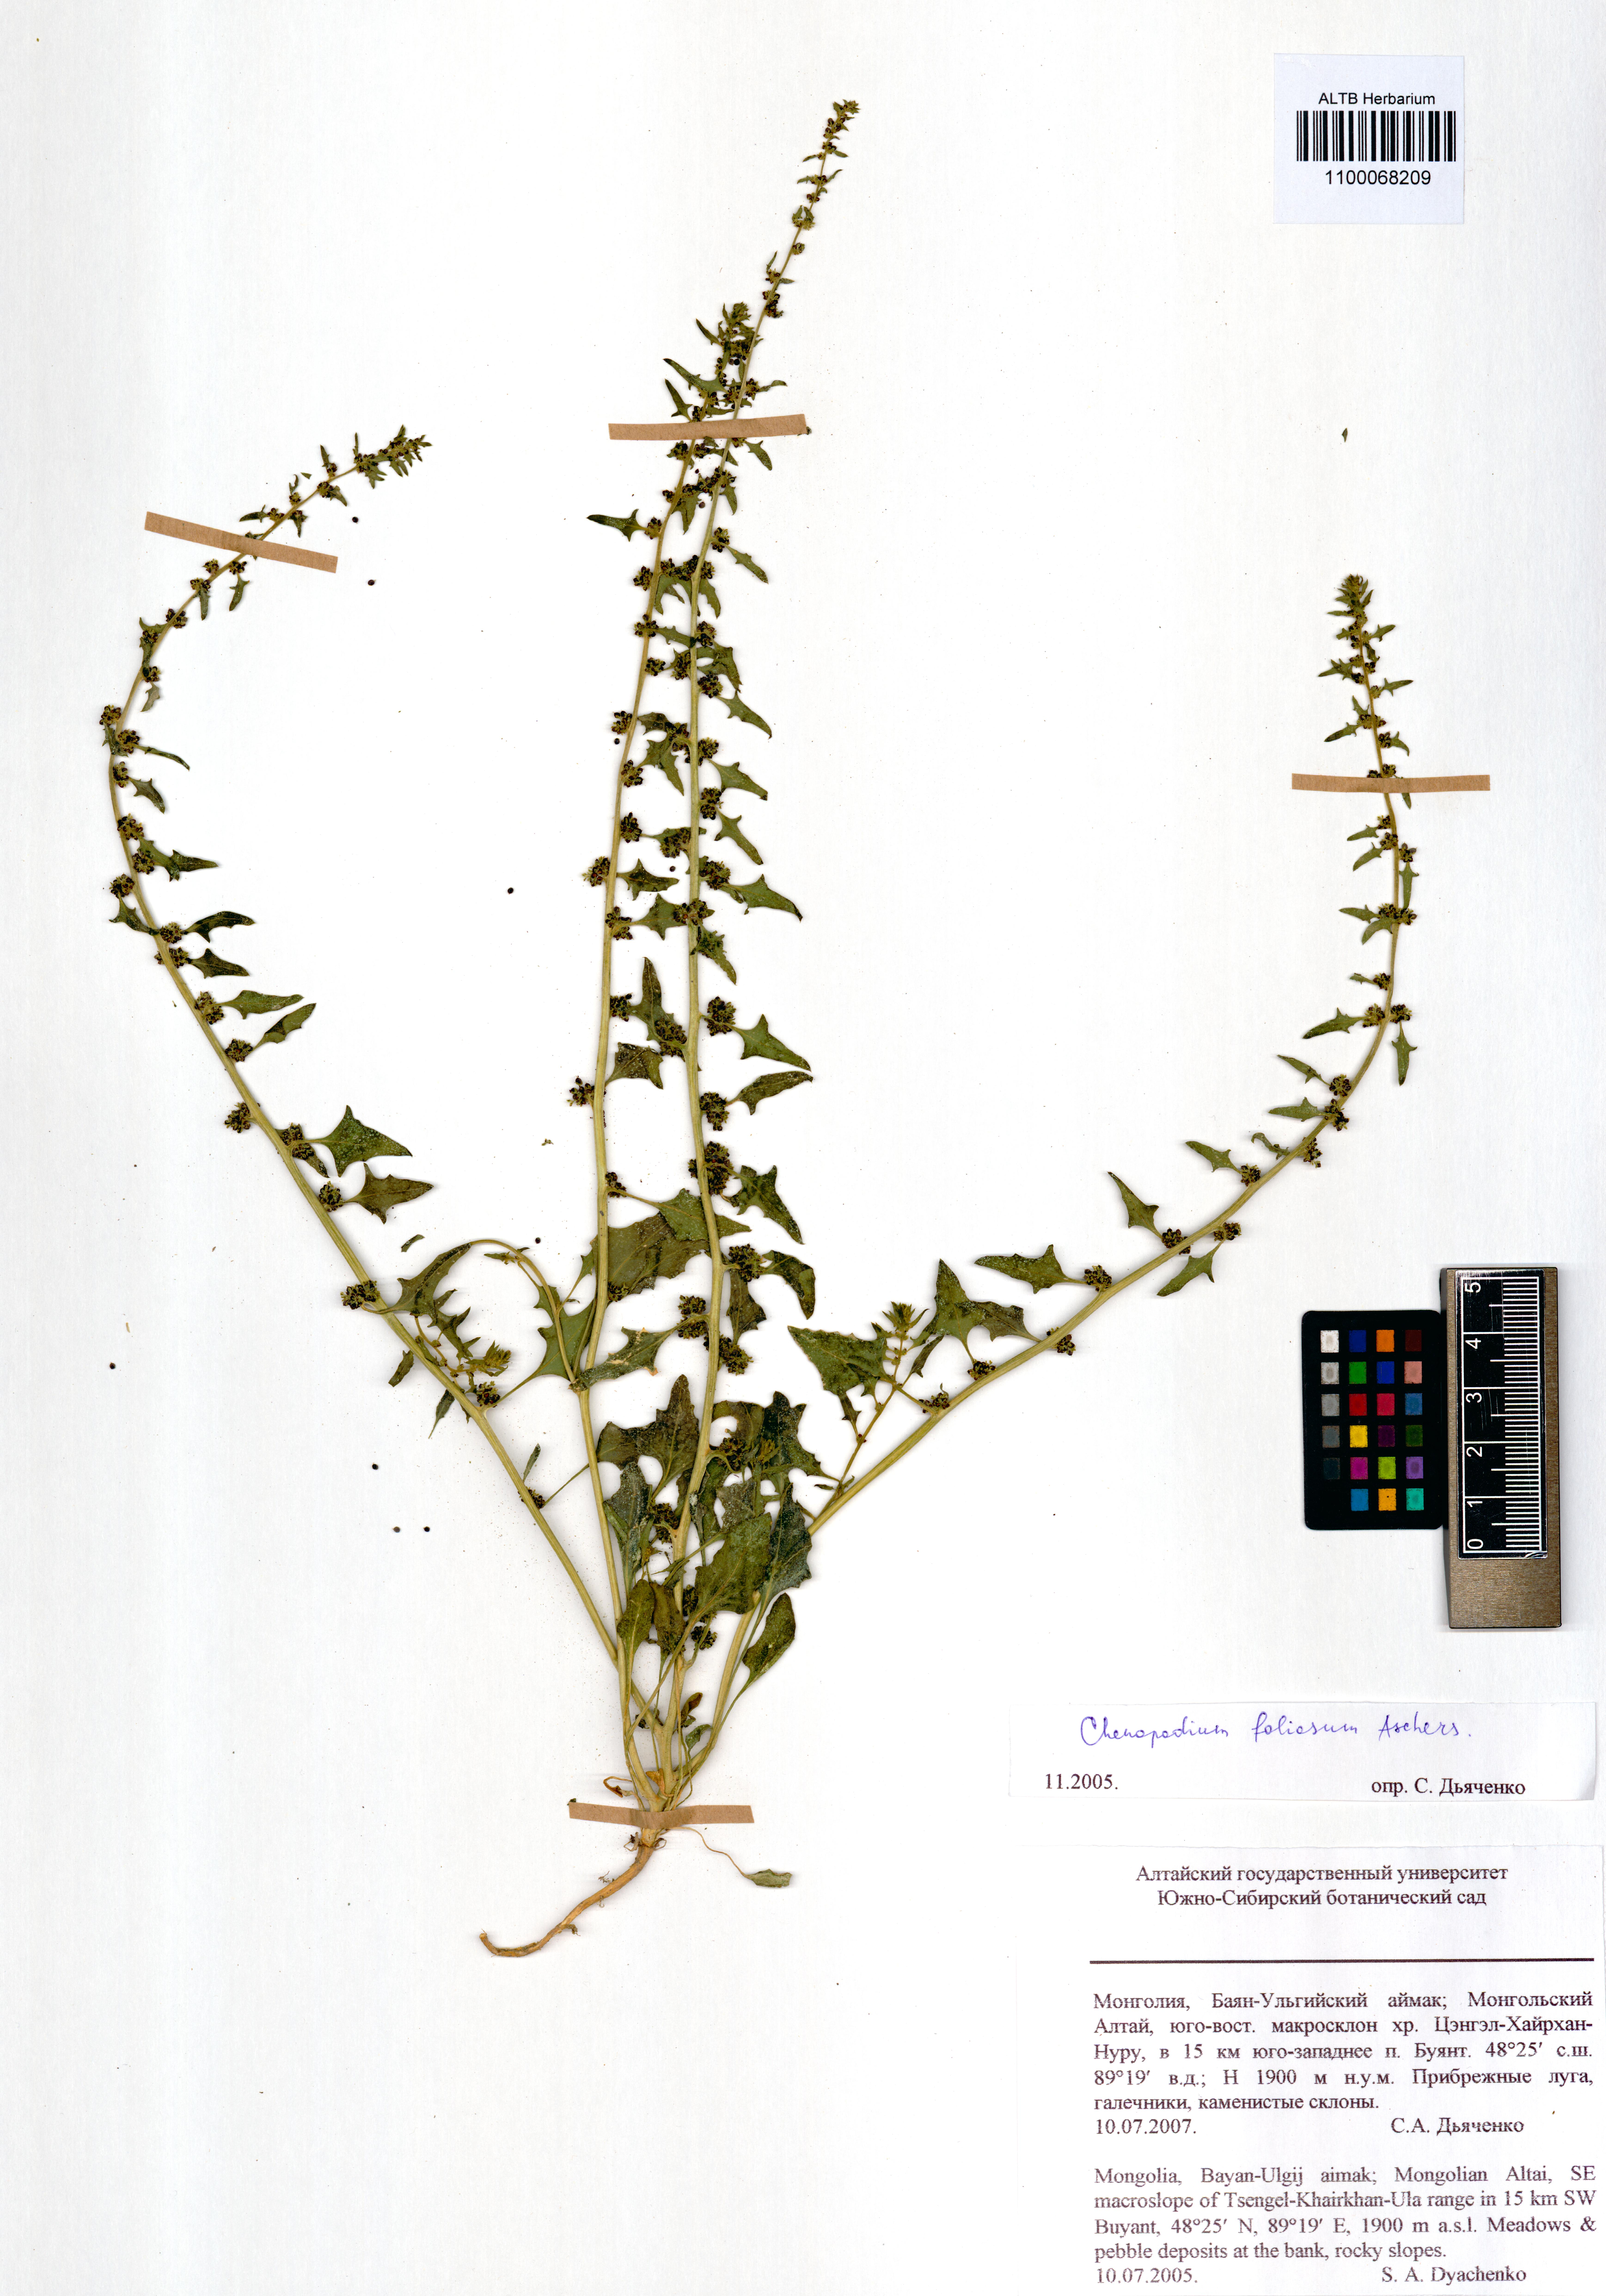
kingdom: Plantae
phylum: Tracheophyta
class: Magnoliopsida
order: Caryophyllales
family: Amaranthaceae
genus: Blitum
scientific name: Blitum virgatum
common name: Strawberry goosefoot
